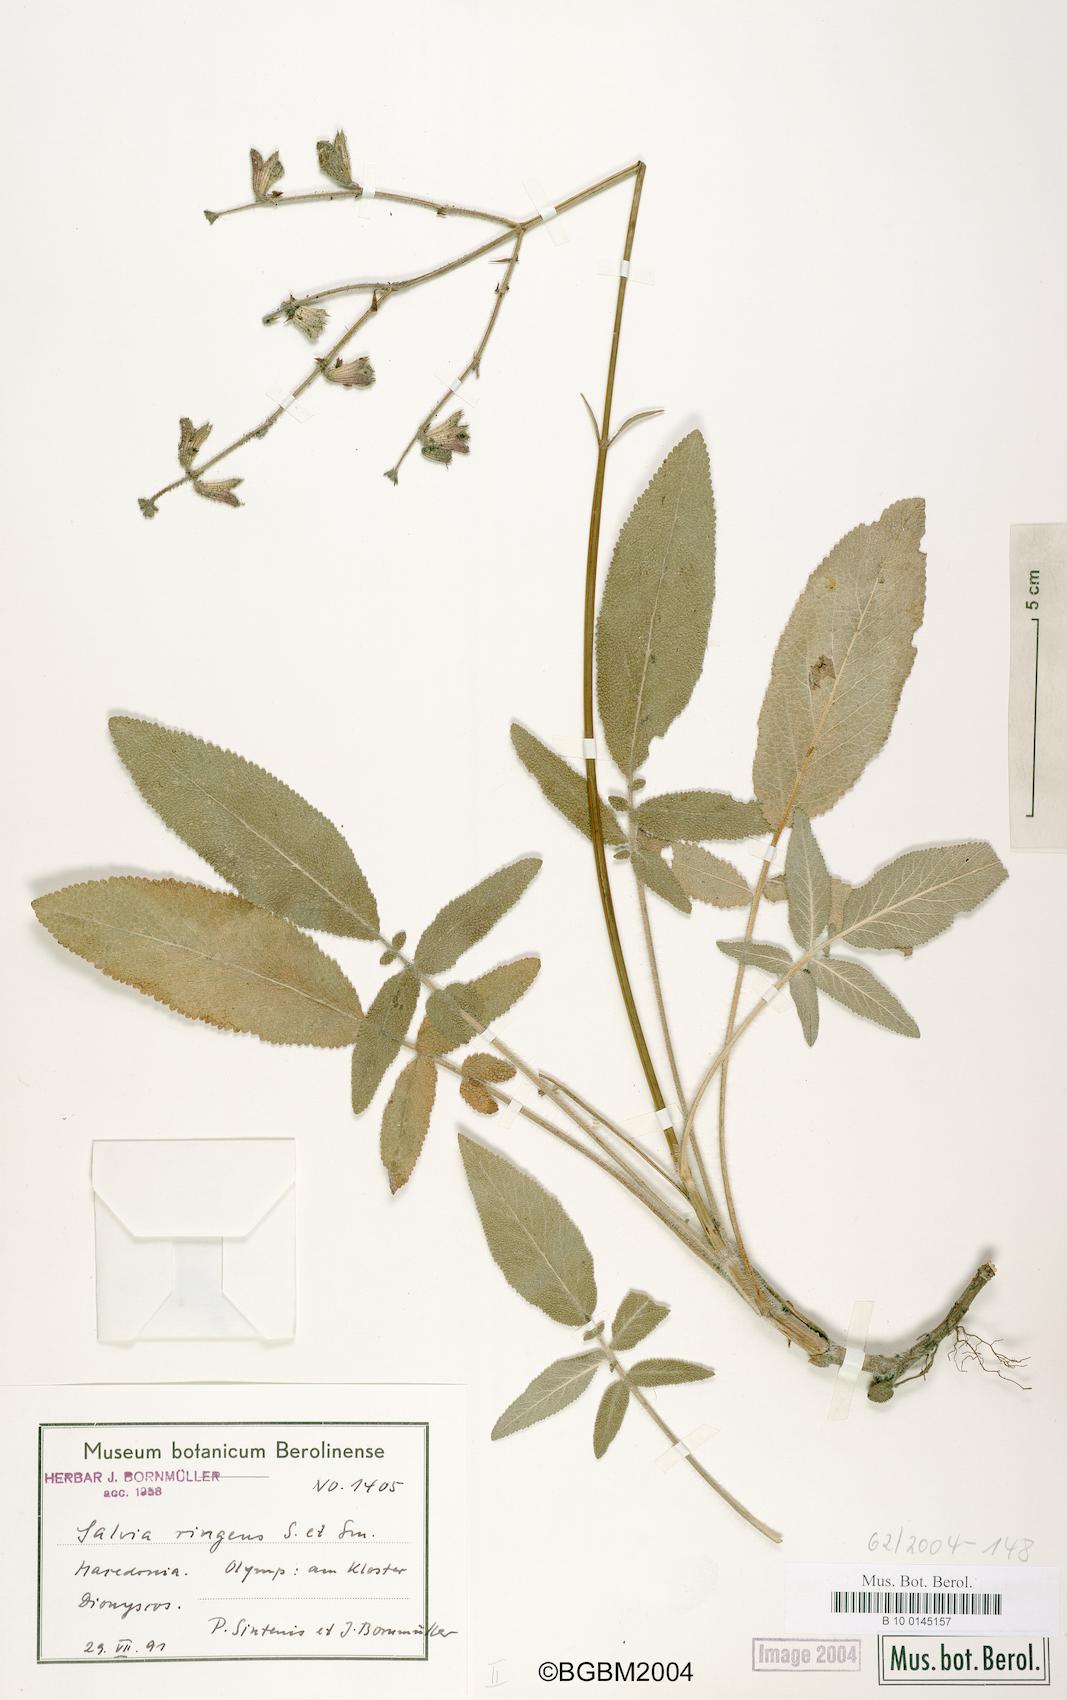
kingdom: Plantae
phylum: Tracheophyta
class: Magnoliopsida
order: Lamiales
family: Lamiaceae
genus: Salvia
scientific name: Salvia ringens
